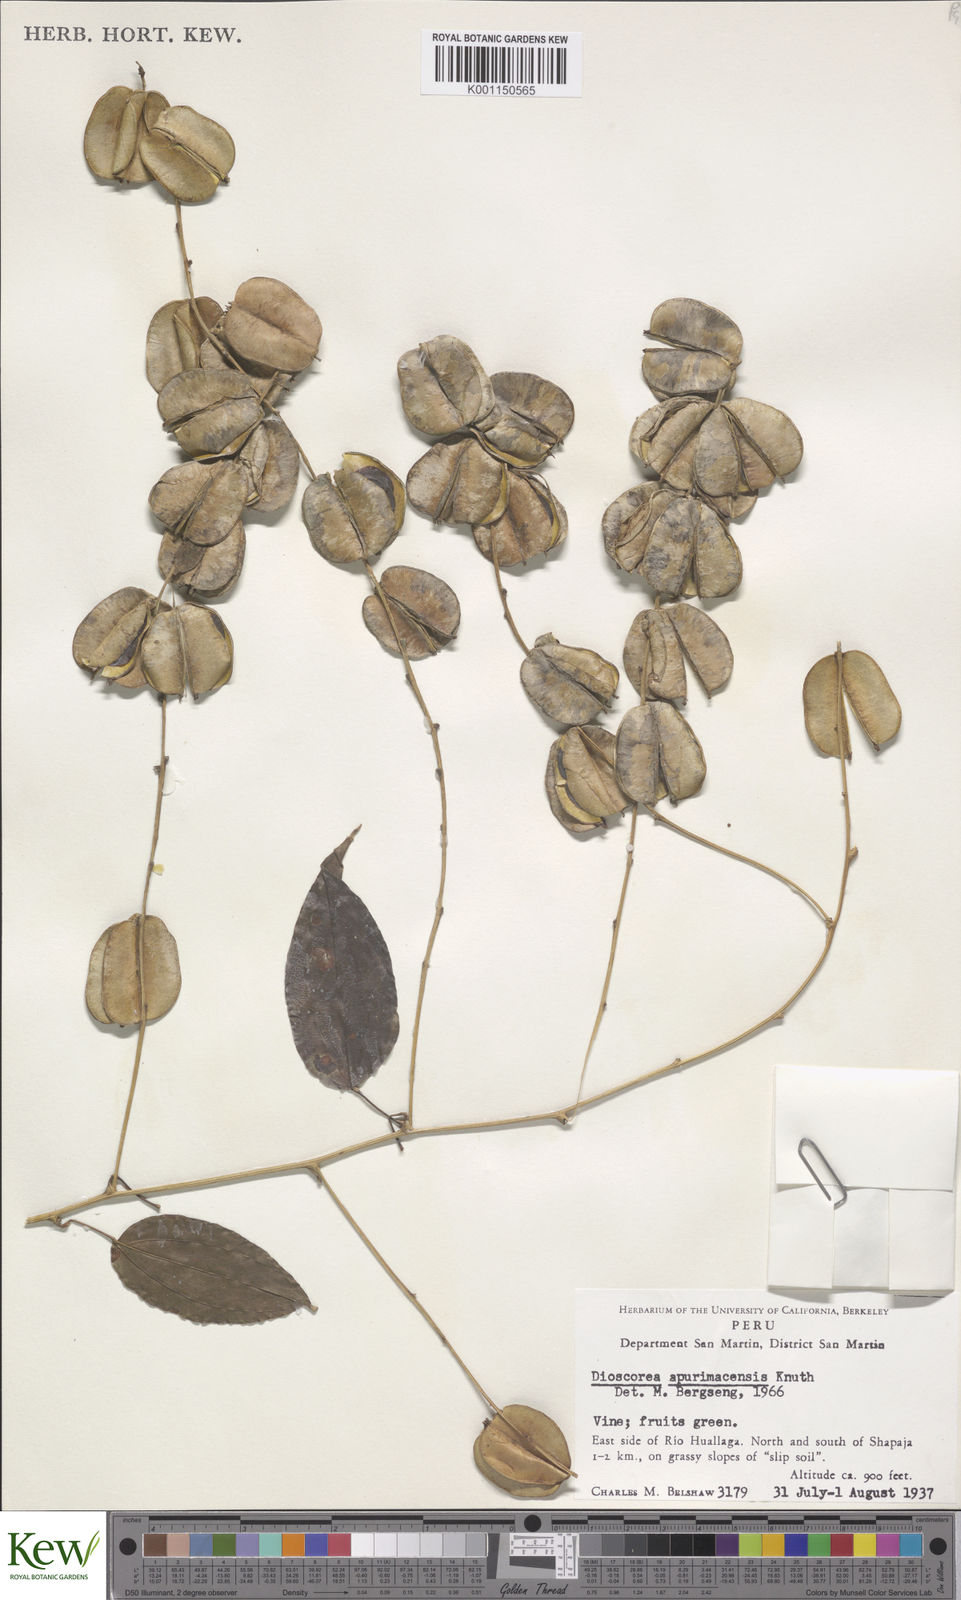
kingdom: Plantae
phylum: Tracheophyta
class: Liliopsida
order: Dioscoreales
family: Dioscoreaceae
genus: Dioscorea
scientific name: Dioscorea acanthogene
